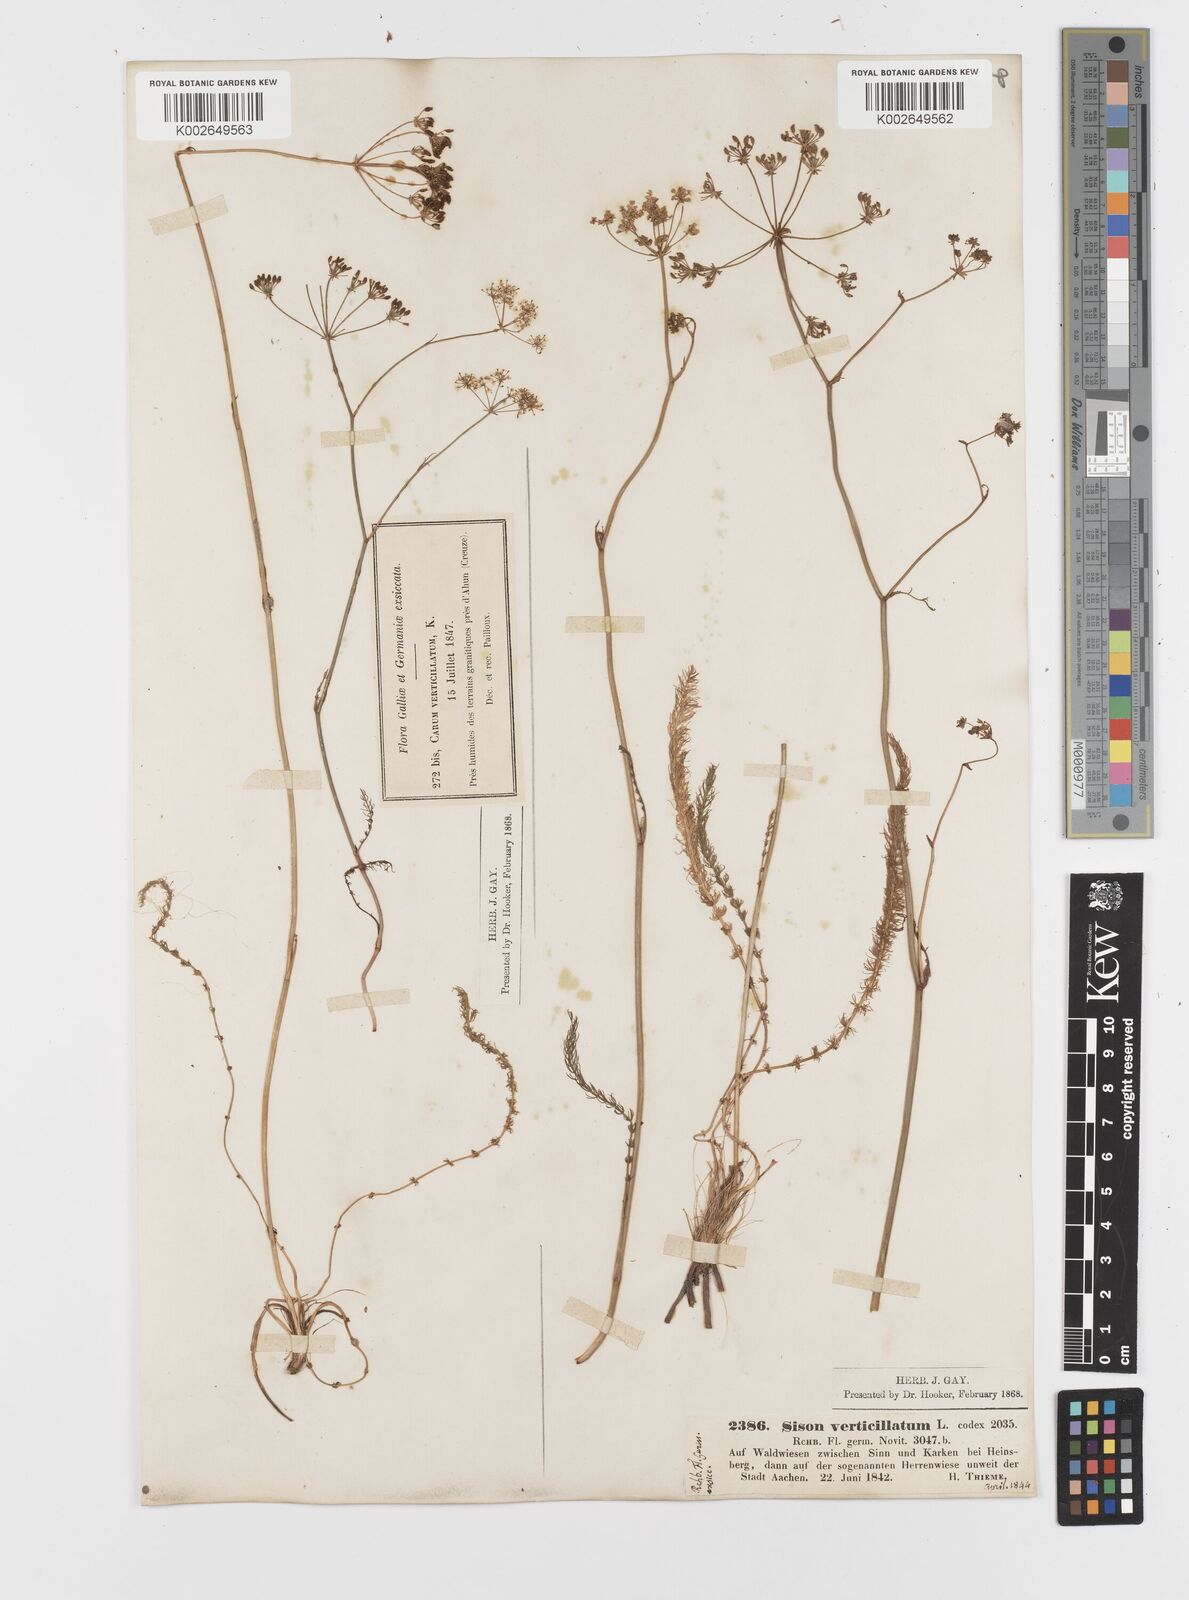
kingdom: Plantae
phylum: Tracheophyta
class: Magnoliopsida
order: Apiales
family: Apiaceae
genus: Trocdaris
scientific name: Trocdaris verticillatum
